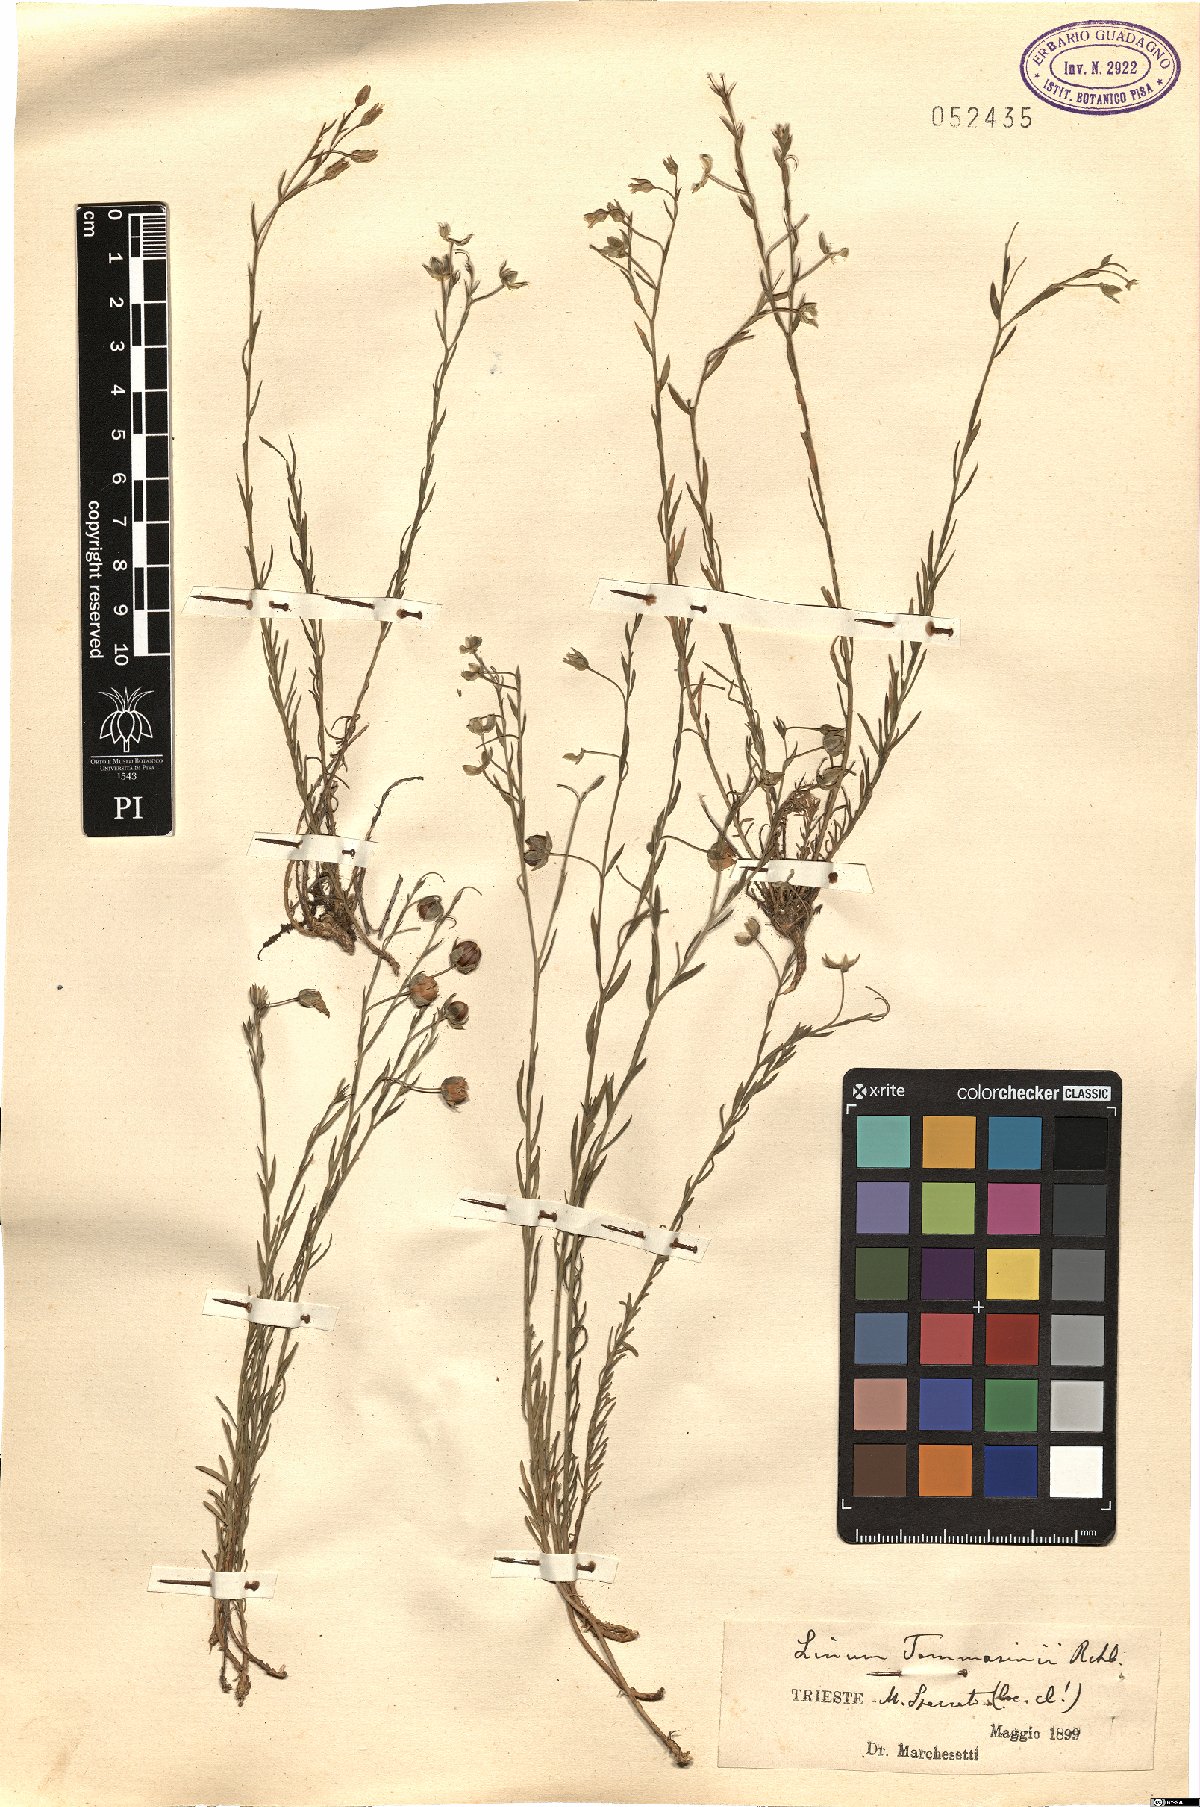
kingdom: Plantae
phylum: Tracheophyta
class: Magnoliopsida
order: Malpighiales
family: Linaceae
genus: Linum
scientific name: Linum austriacum
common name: Austrian flax
